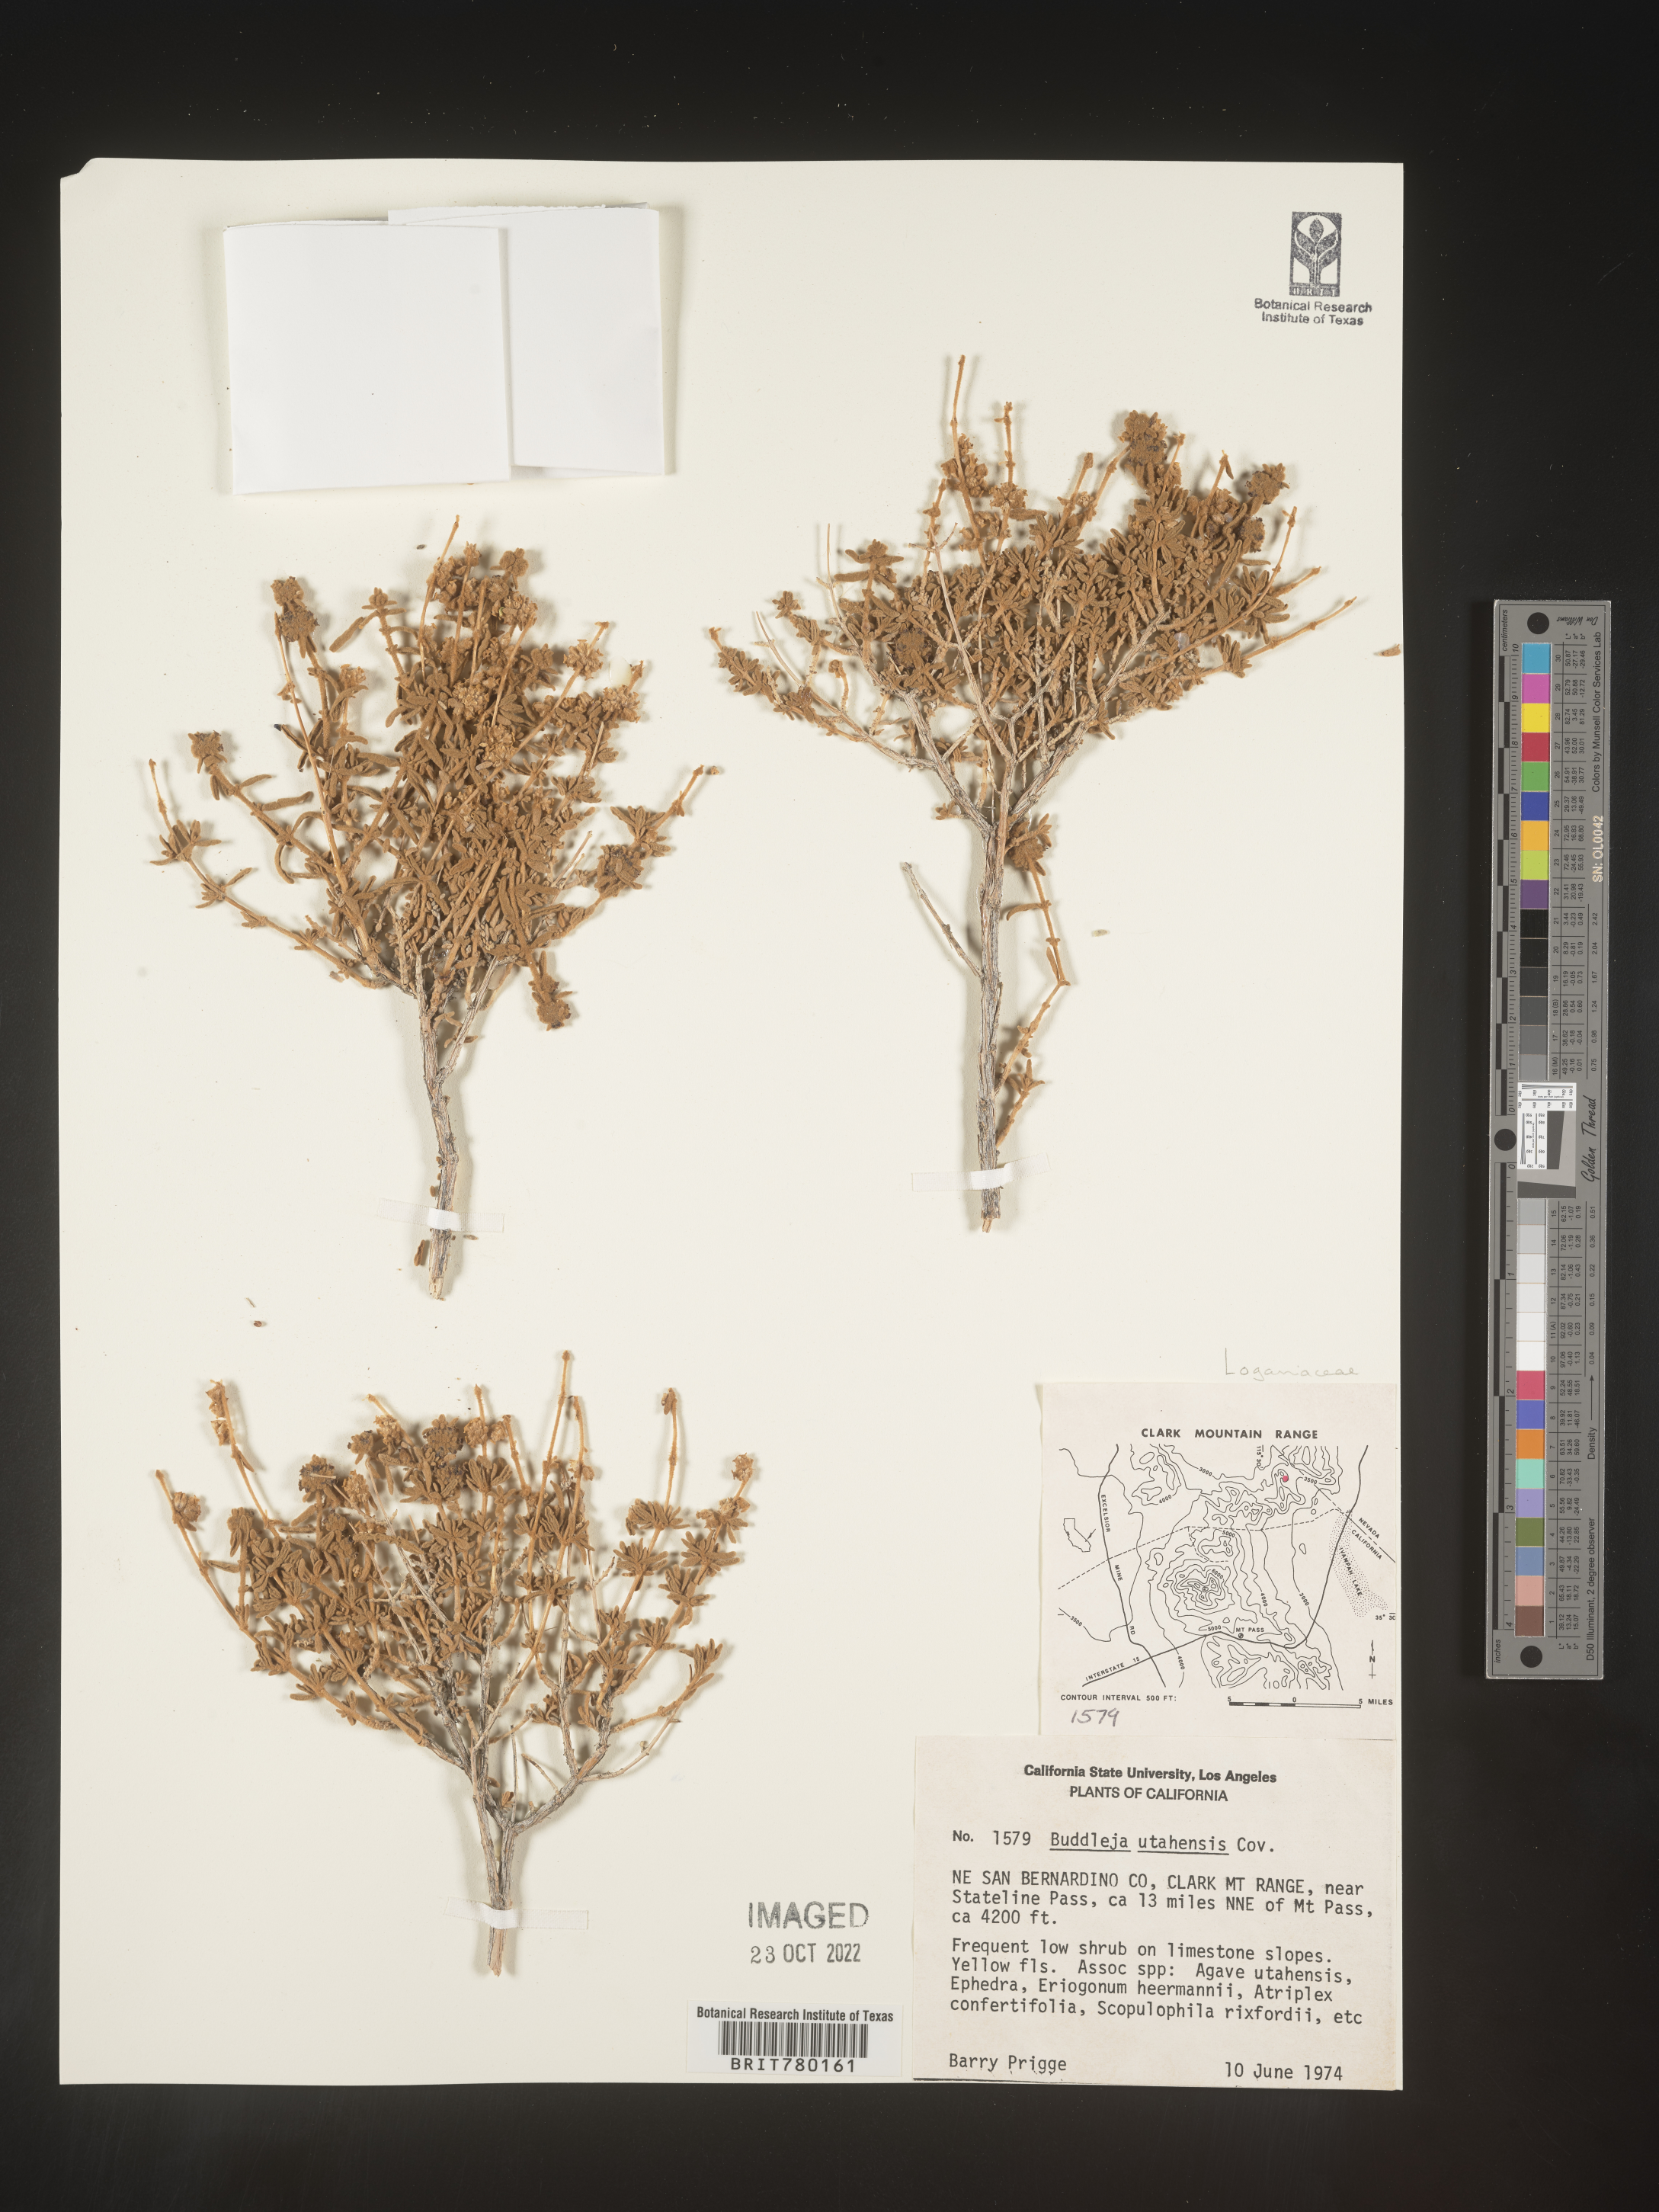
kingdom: Plantae
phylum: Tracheophyta
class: Magnoliopsida
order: Lamiales
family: Scrophulariaceae
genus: Buddleja
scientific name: Buddleja
